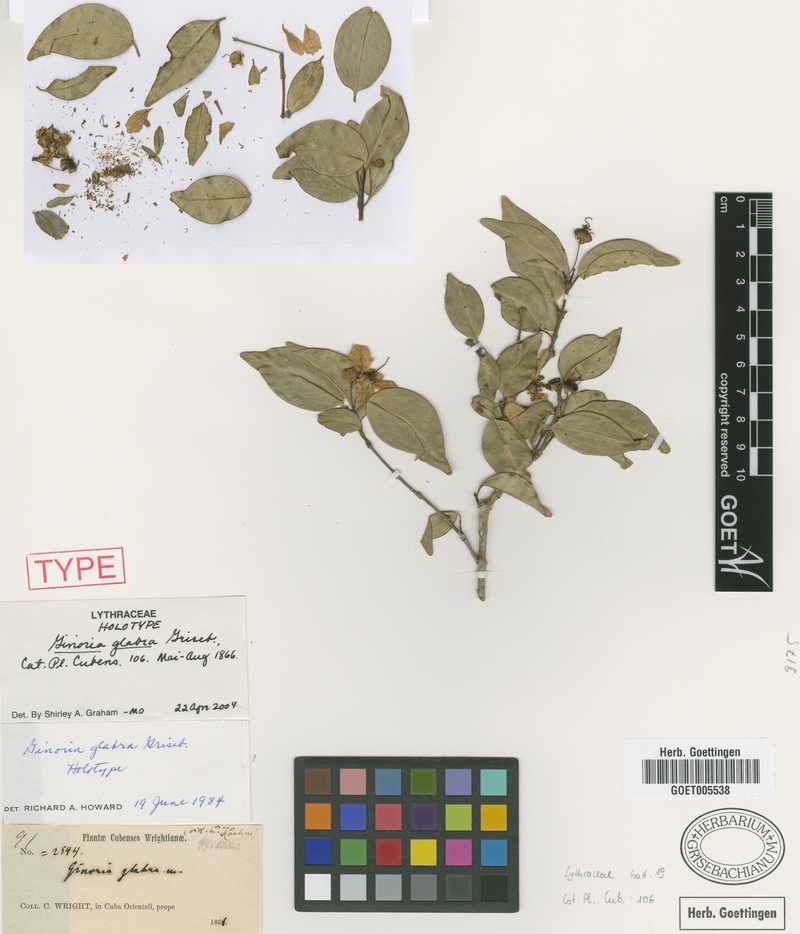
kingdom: Plantae
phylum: Tracheophyta
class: Magnoliopsida
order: Myrtales
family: Lythraceae
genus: Ginoria
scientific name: Ginoria glabra
